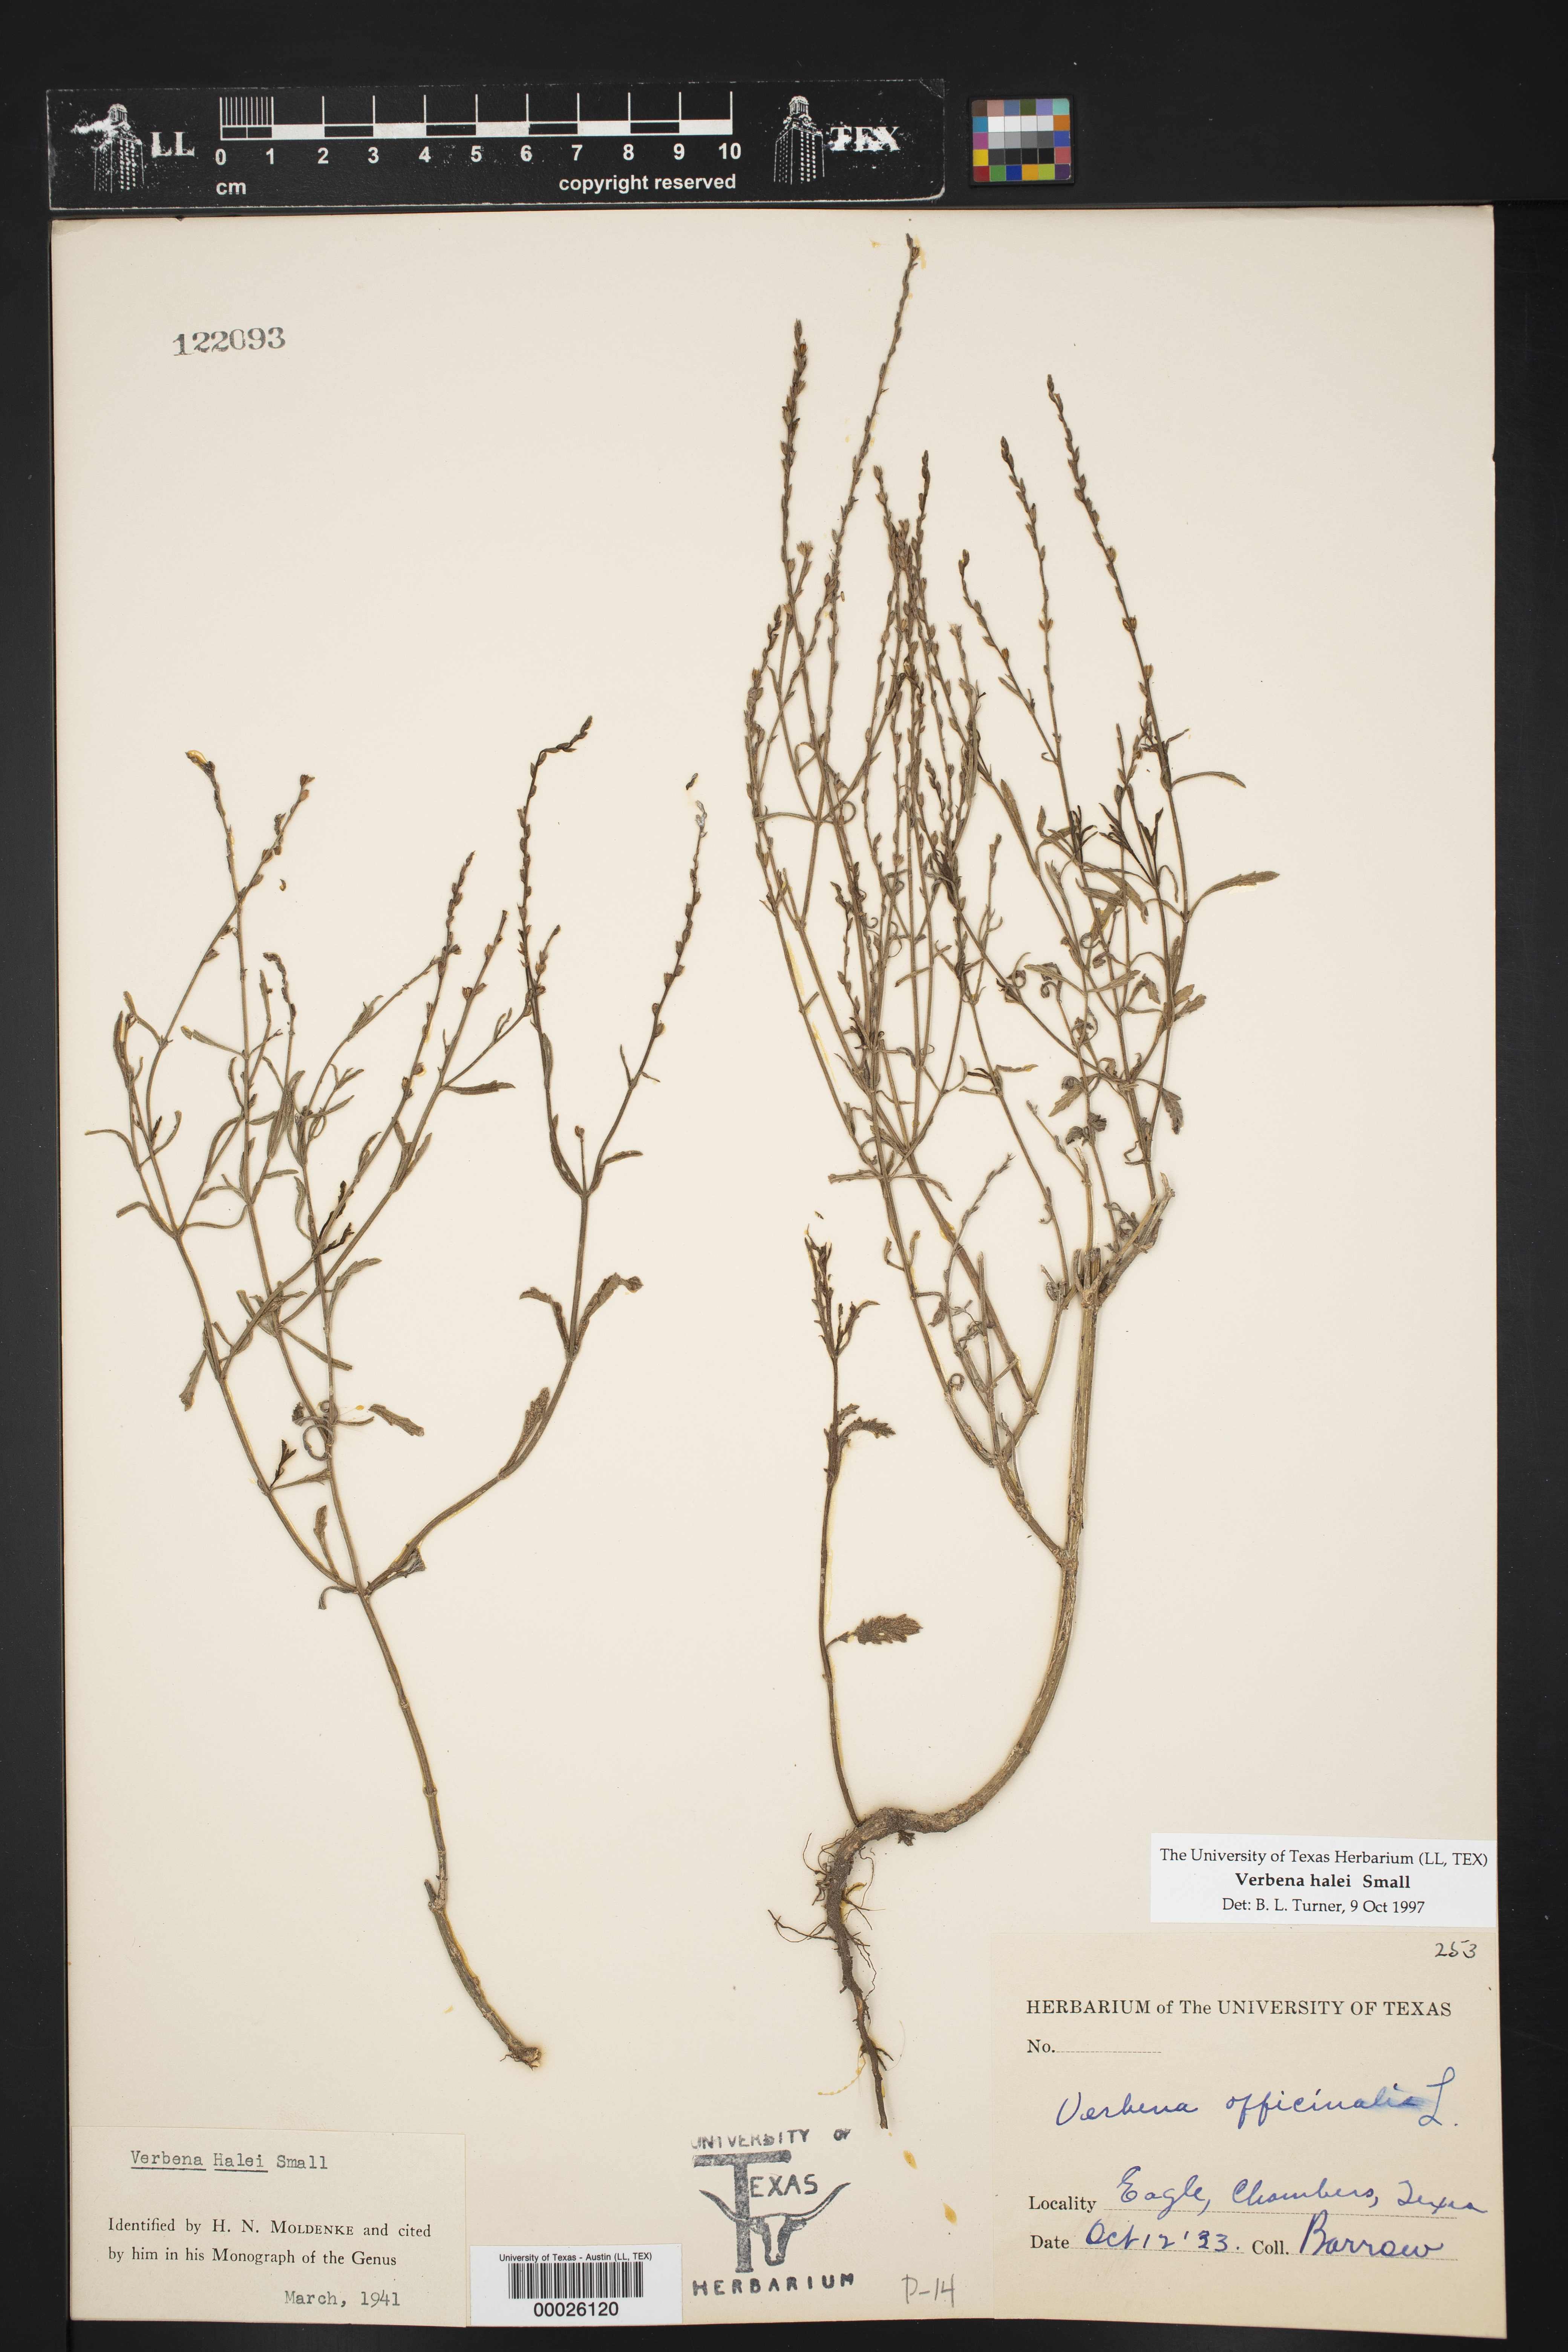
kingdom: Plantae
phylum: Tracheophyta
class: Magnoliopsida
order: Lamiales
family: Verbenaceae
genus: Verbena
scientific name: Verbena halei
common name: Texas vervain
